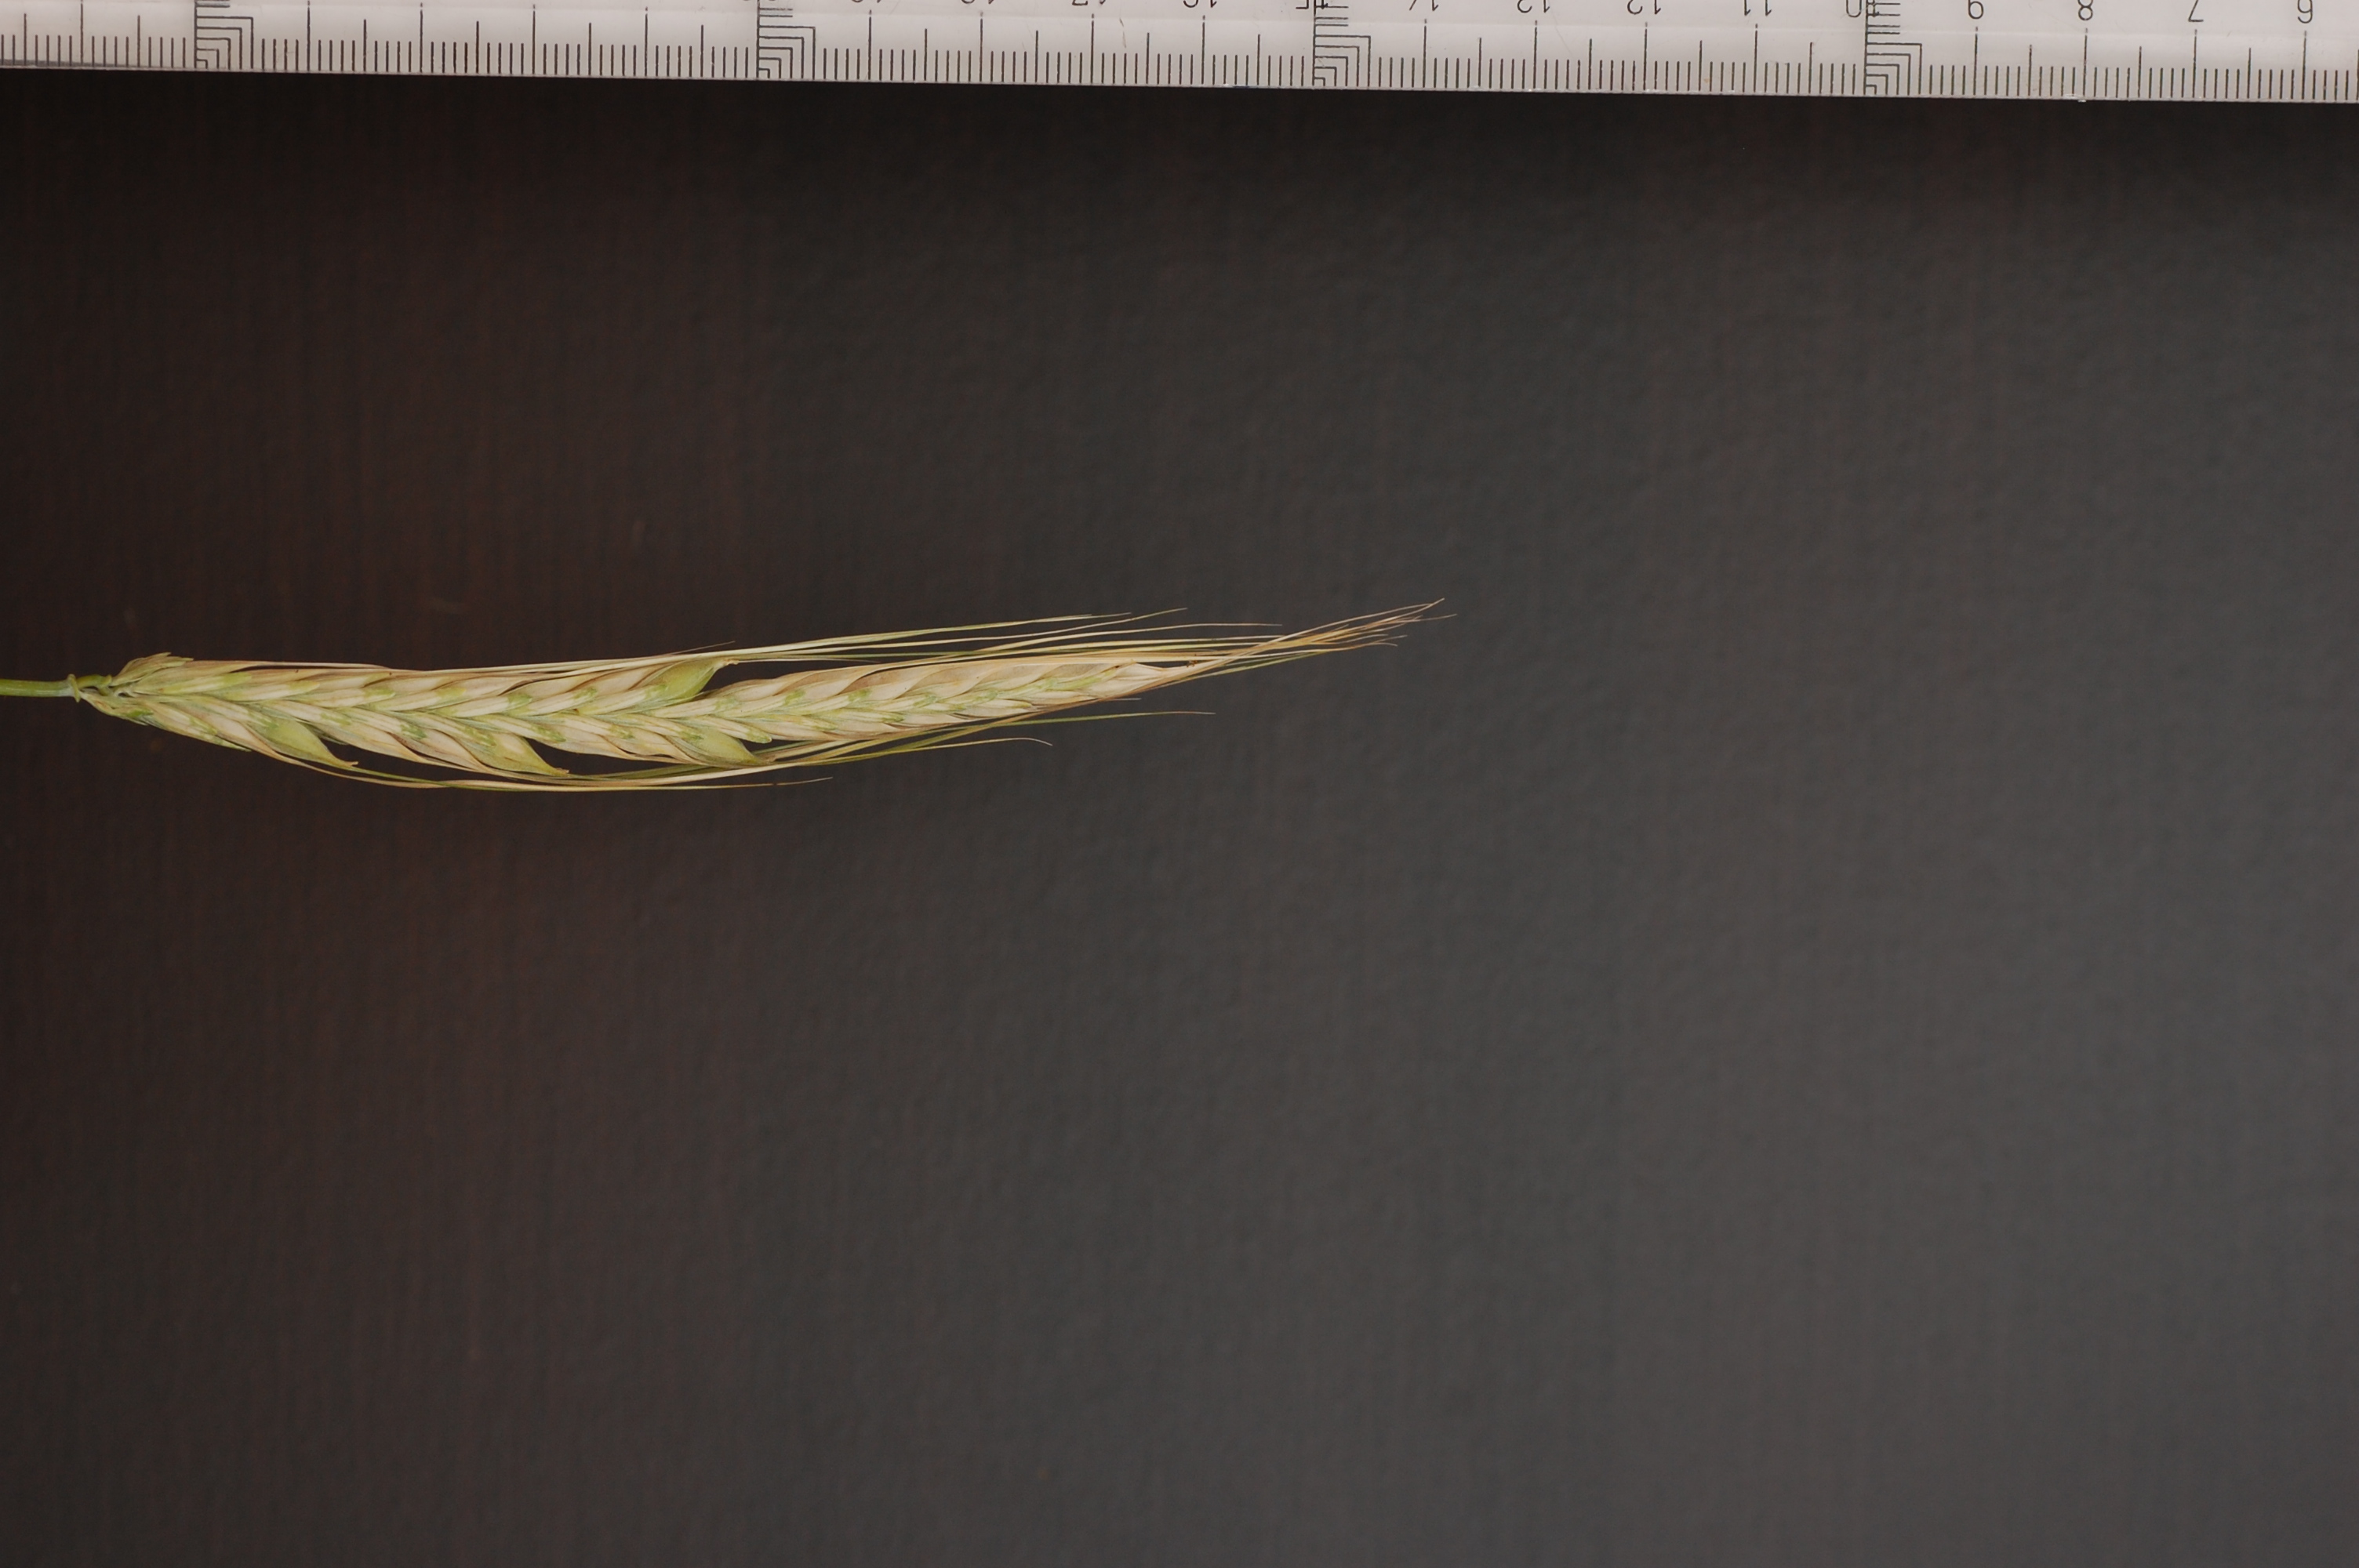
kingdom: Plantae
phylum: Tracheophyta
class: Liliopsida
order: Poales
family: Poaceae
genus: Hordeum
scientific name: Hordeum vulgare
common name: Common barley
